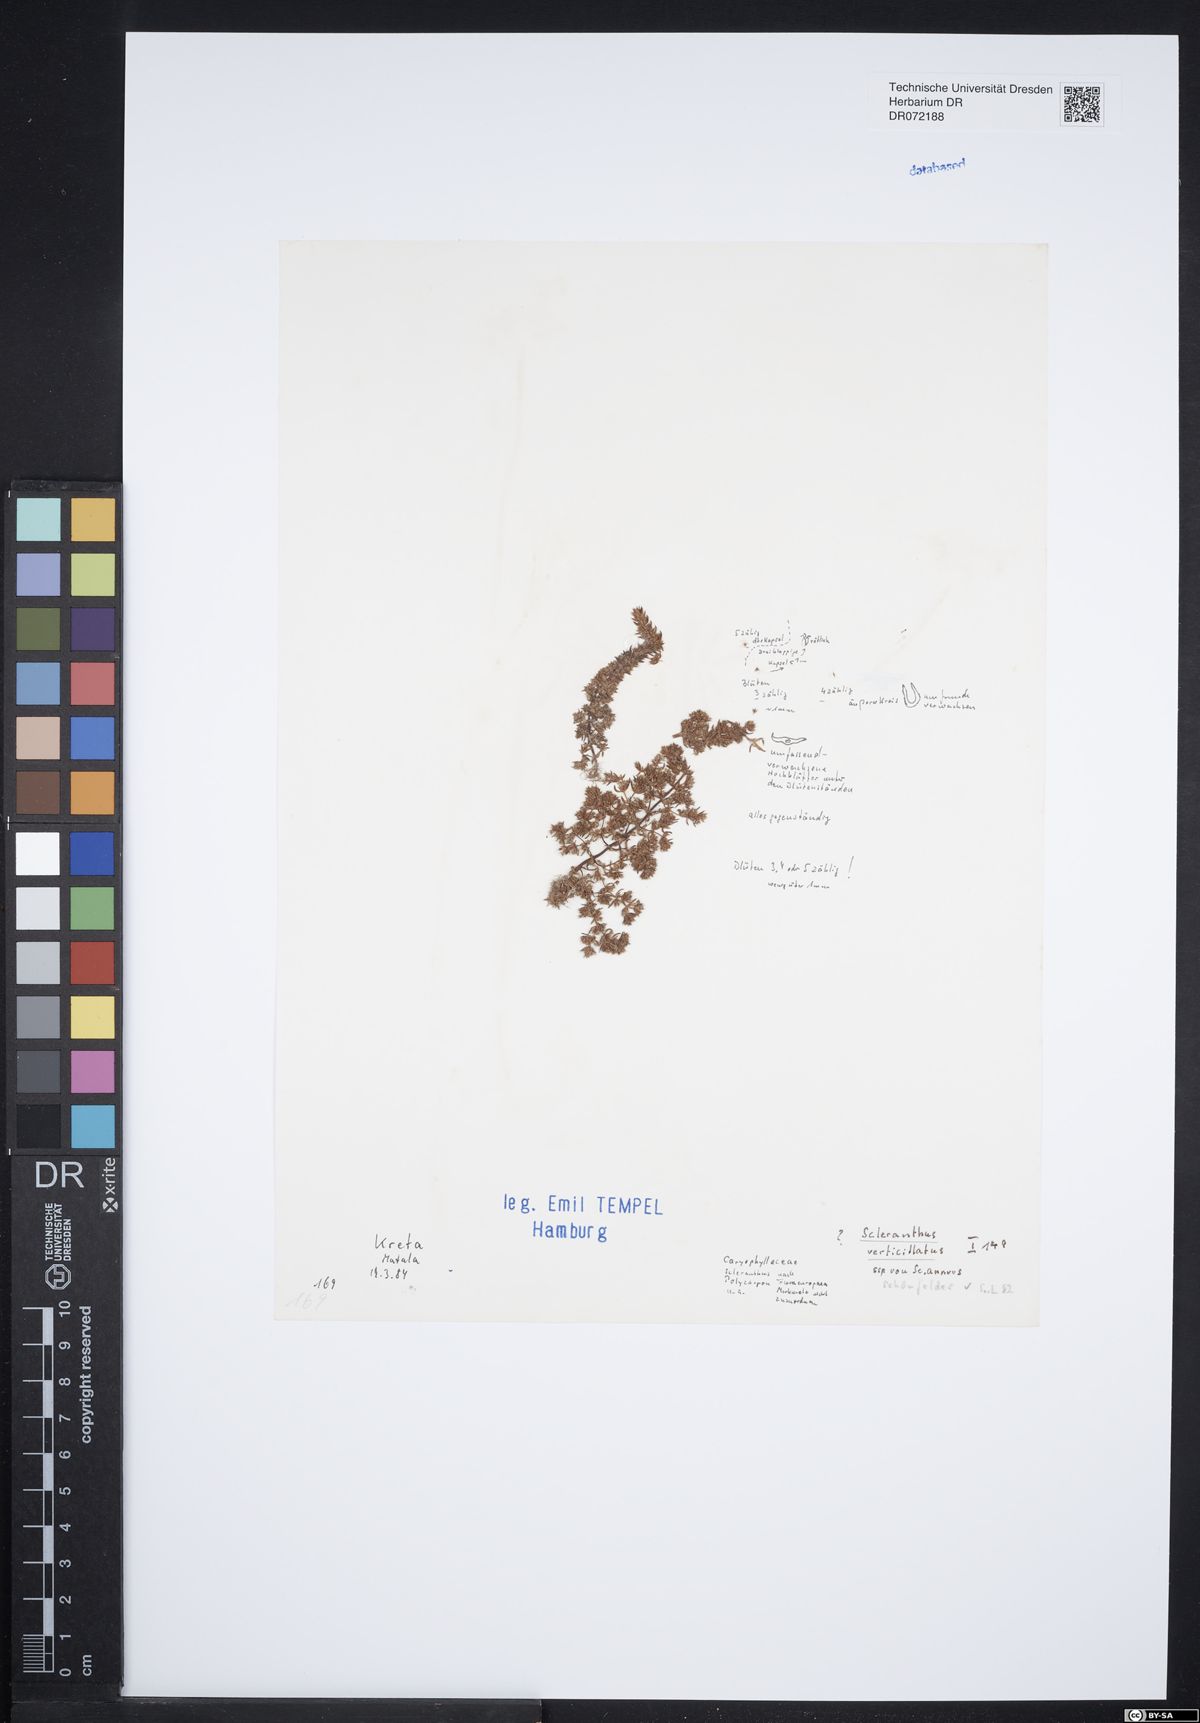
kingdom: Plantae
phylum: Tracheophyta
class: Magnoliopsida
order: Caryophyllales
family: Caryophyllaceae
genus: Scleranthus
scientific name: Scleranthus verticillatus
